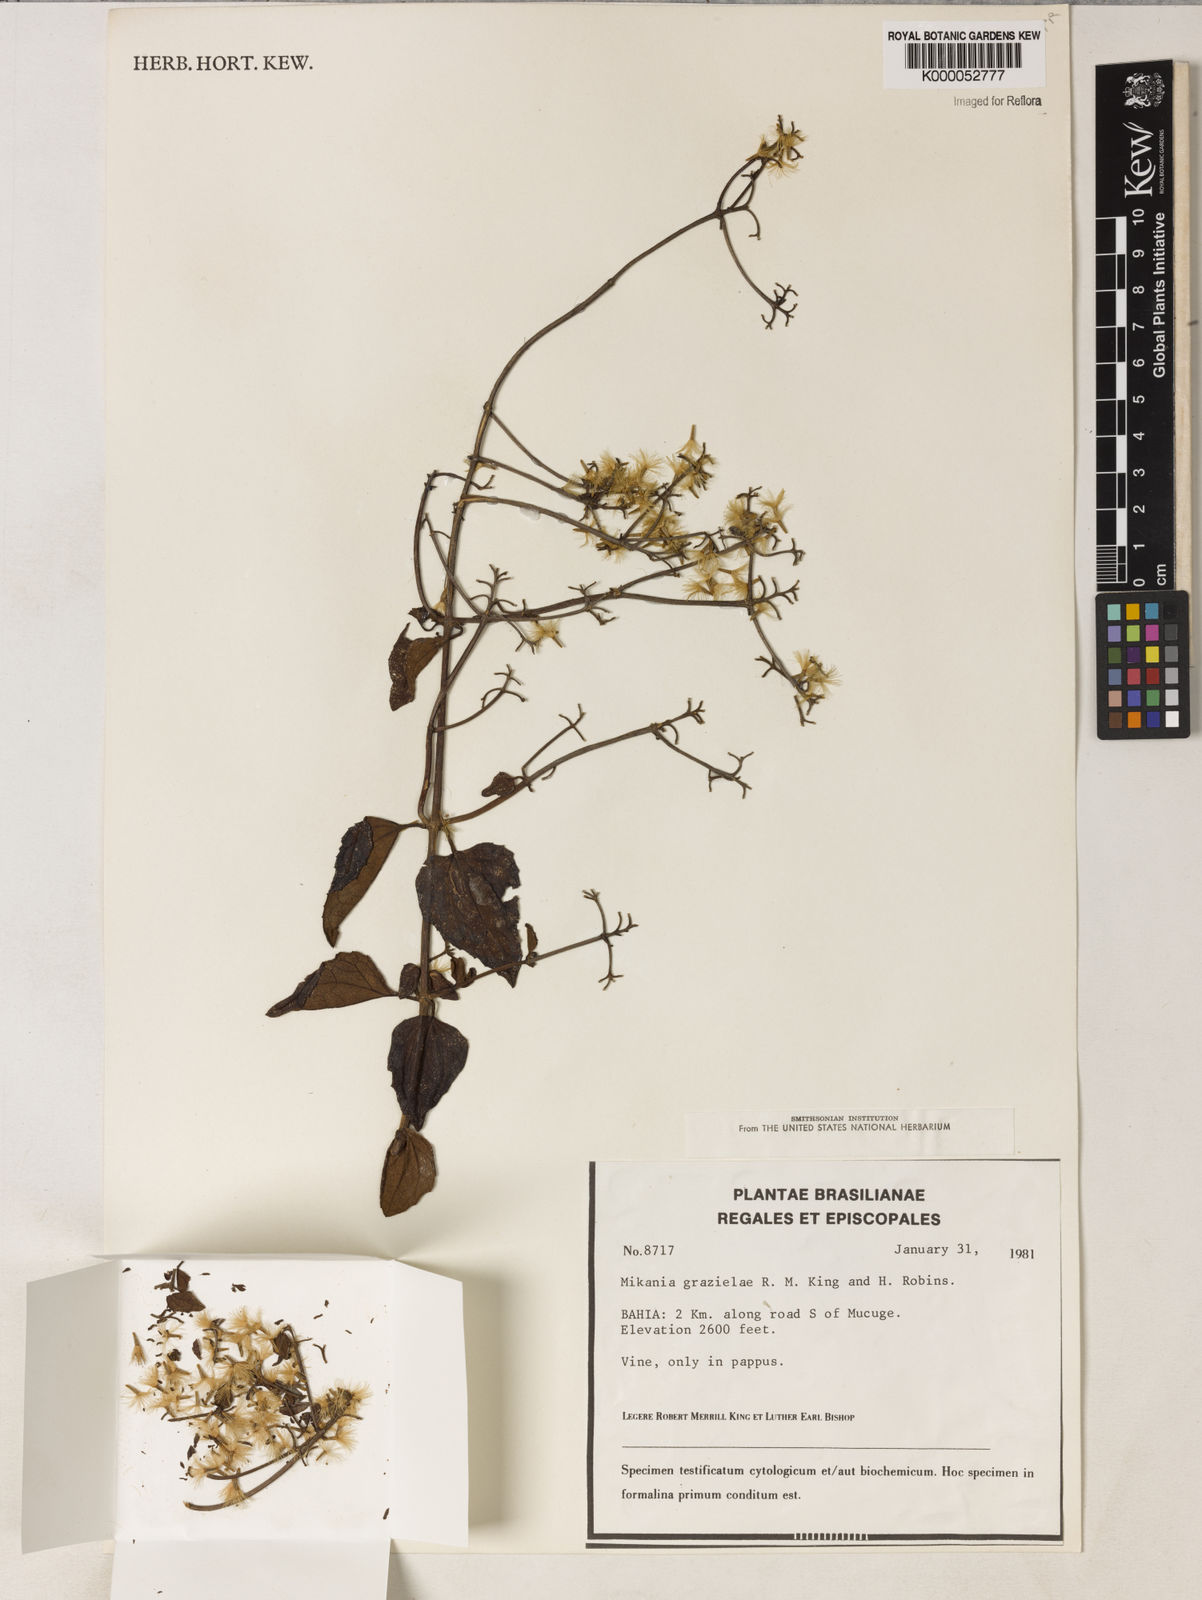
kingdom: Plantae
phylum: Tracheophyta
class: Magnoliopsida
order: Asterales
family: Asteraceae
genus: Mikania
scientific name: Mikania grazielae
